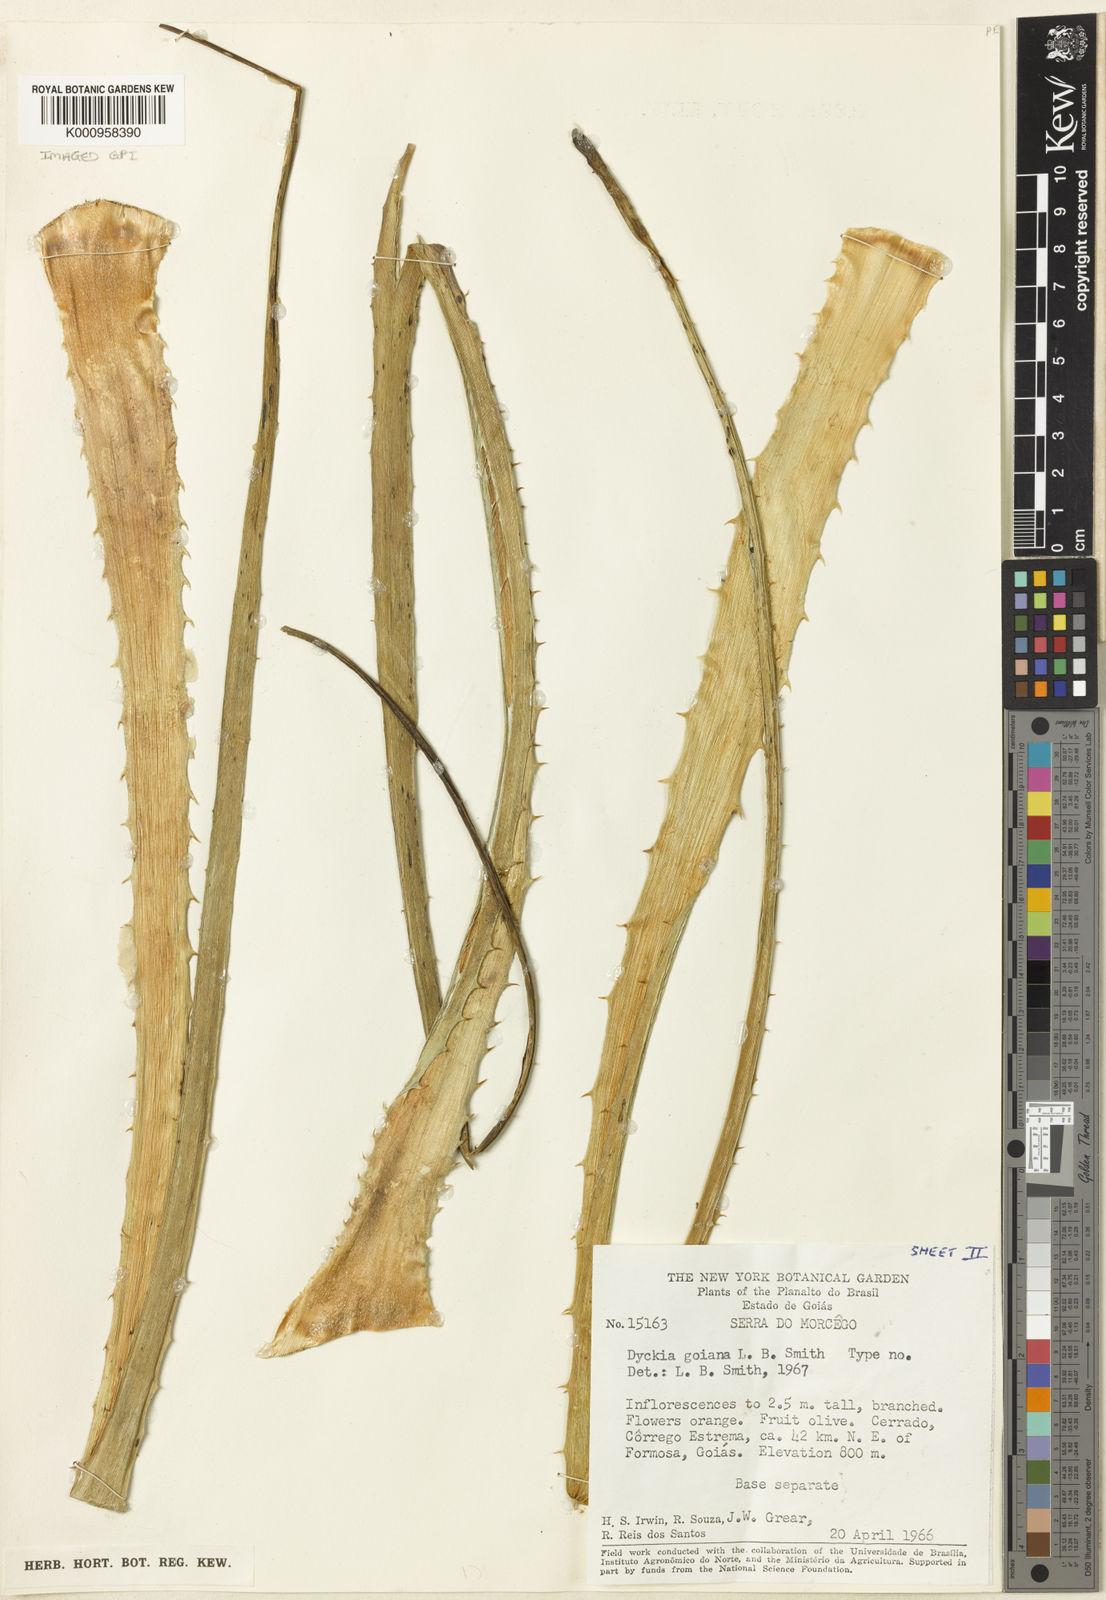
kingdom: Plantae
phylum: Tracheophyta
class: Liliopsida
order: Poales
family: Bromeliaceae
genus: Dyckia
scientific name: Dyckia goiana
